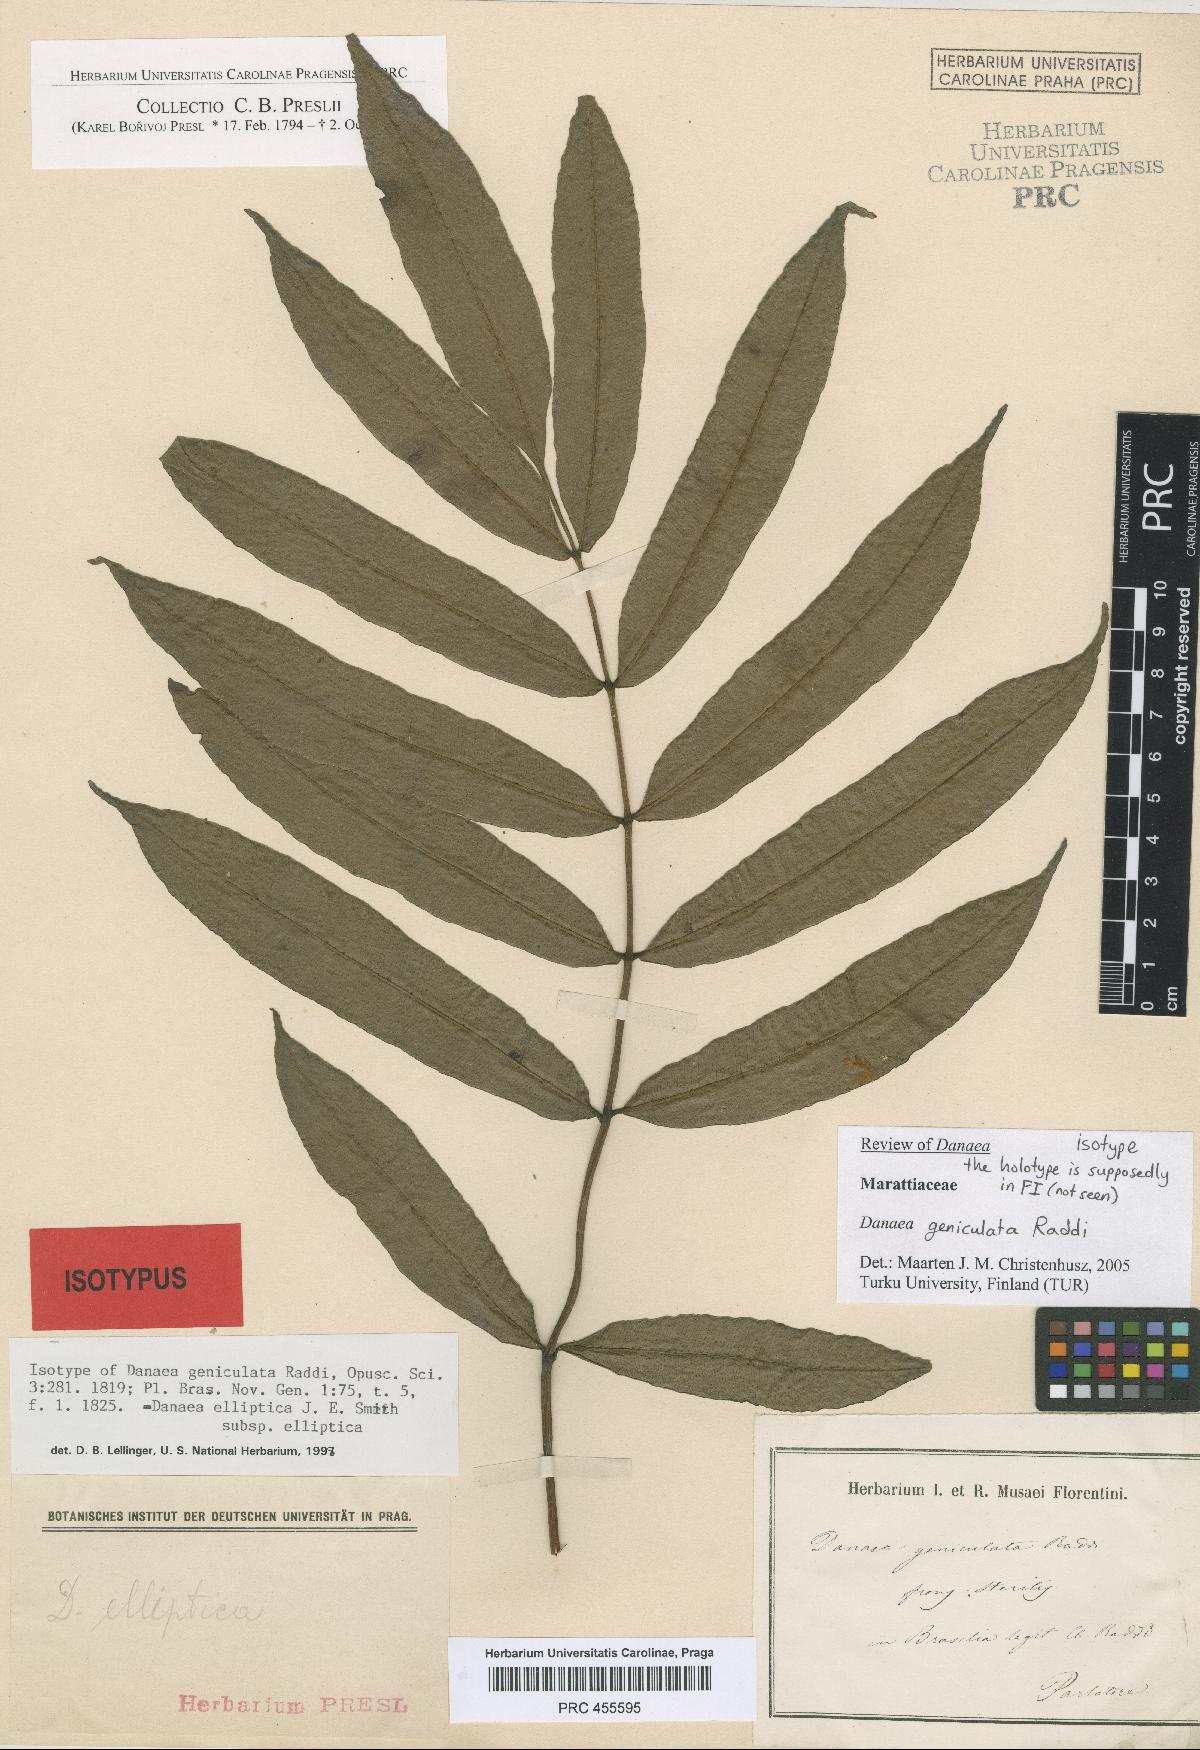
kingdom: Plantae
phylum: Tracheophyta
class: Polypodiopsida
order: Marattiales
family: Marattiaceae
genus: Danaea
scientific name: Danaea geniculata
